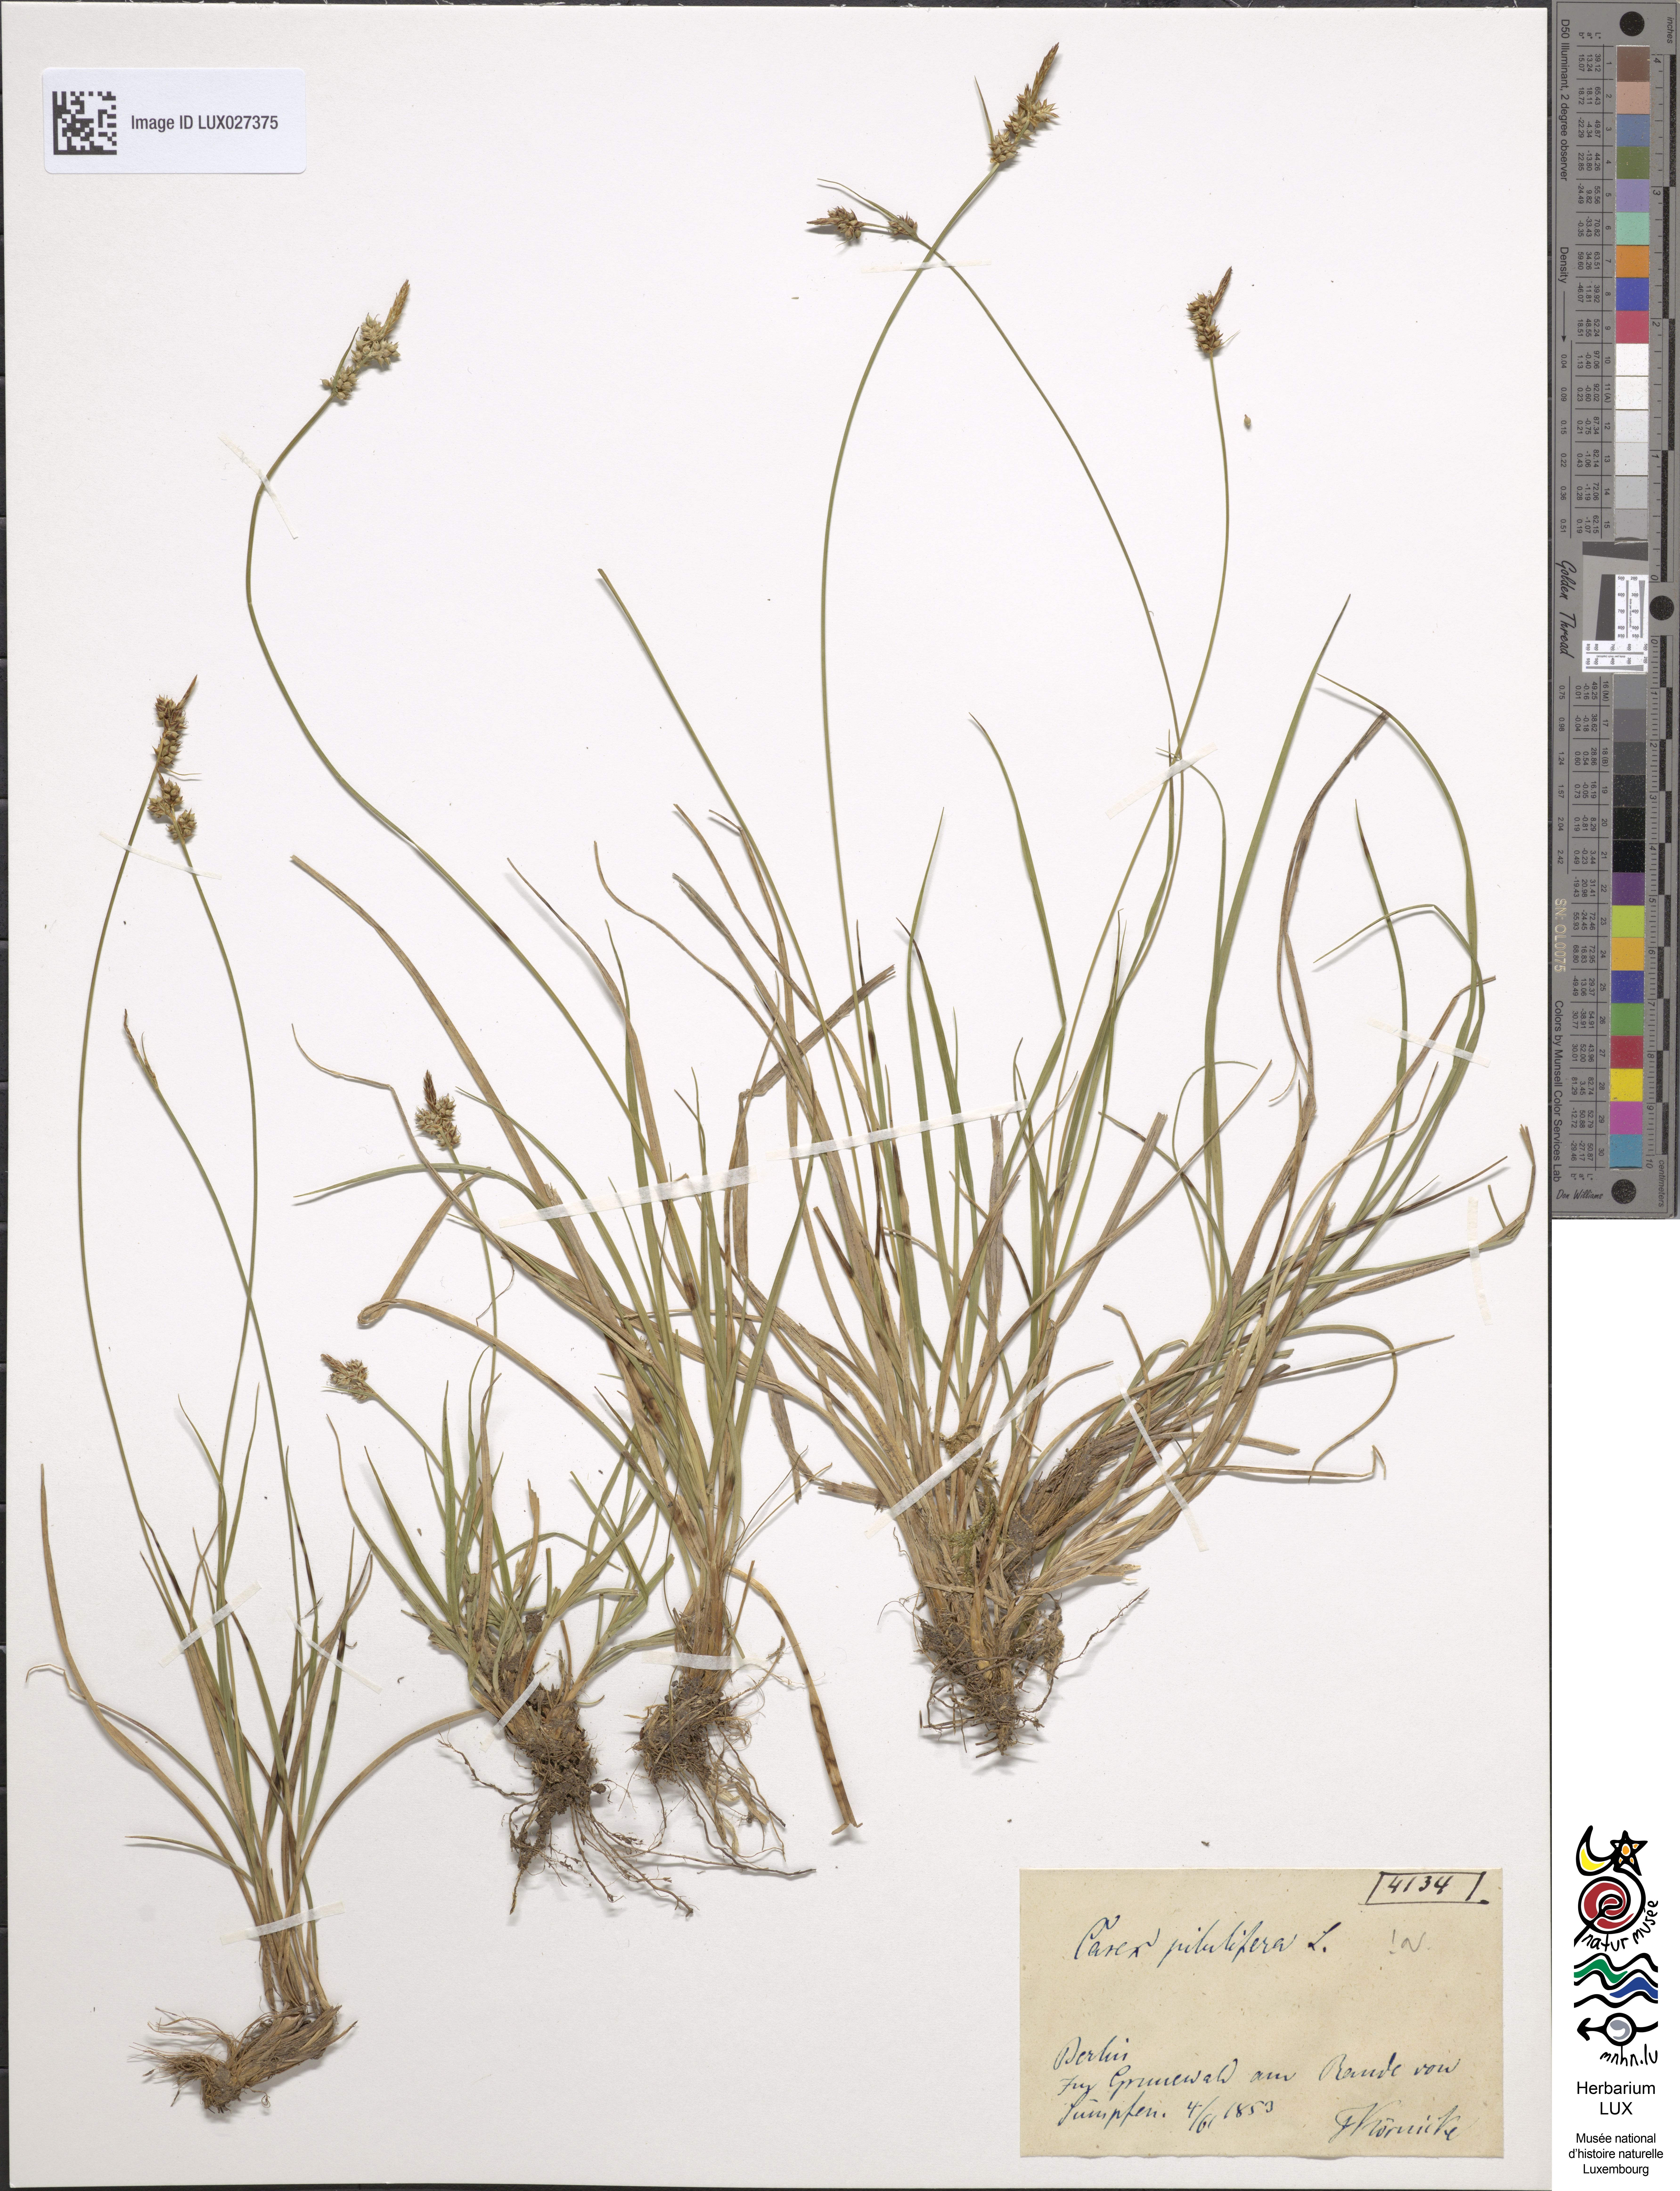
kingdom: Plantae
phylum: Tracheophyta
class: Liliopsida
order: Poales
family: Cyperaceae
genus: Carex
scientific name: Carex pilulifera
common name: Pill sedge
